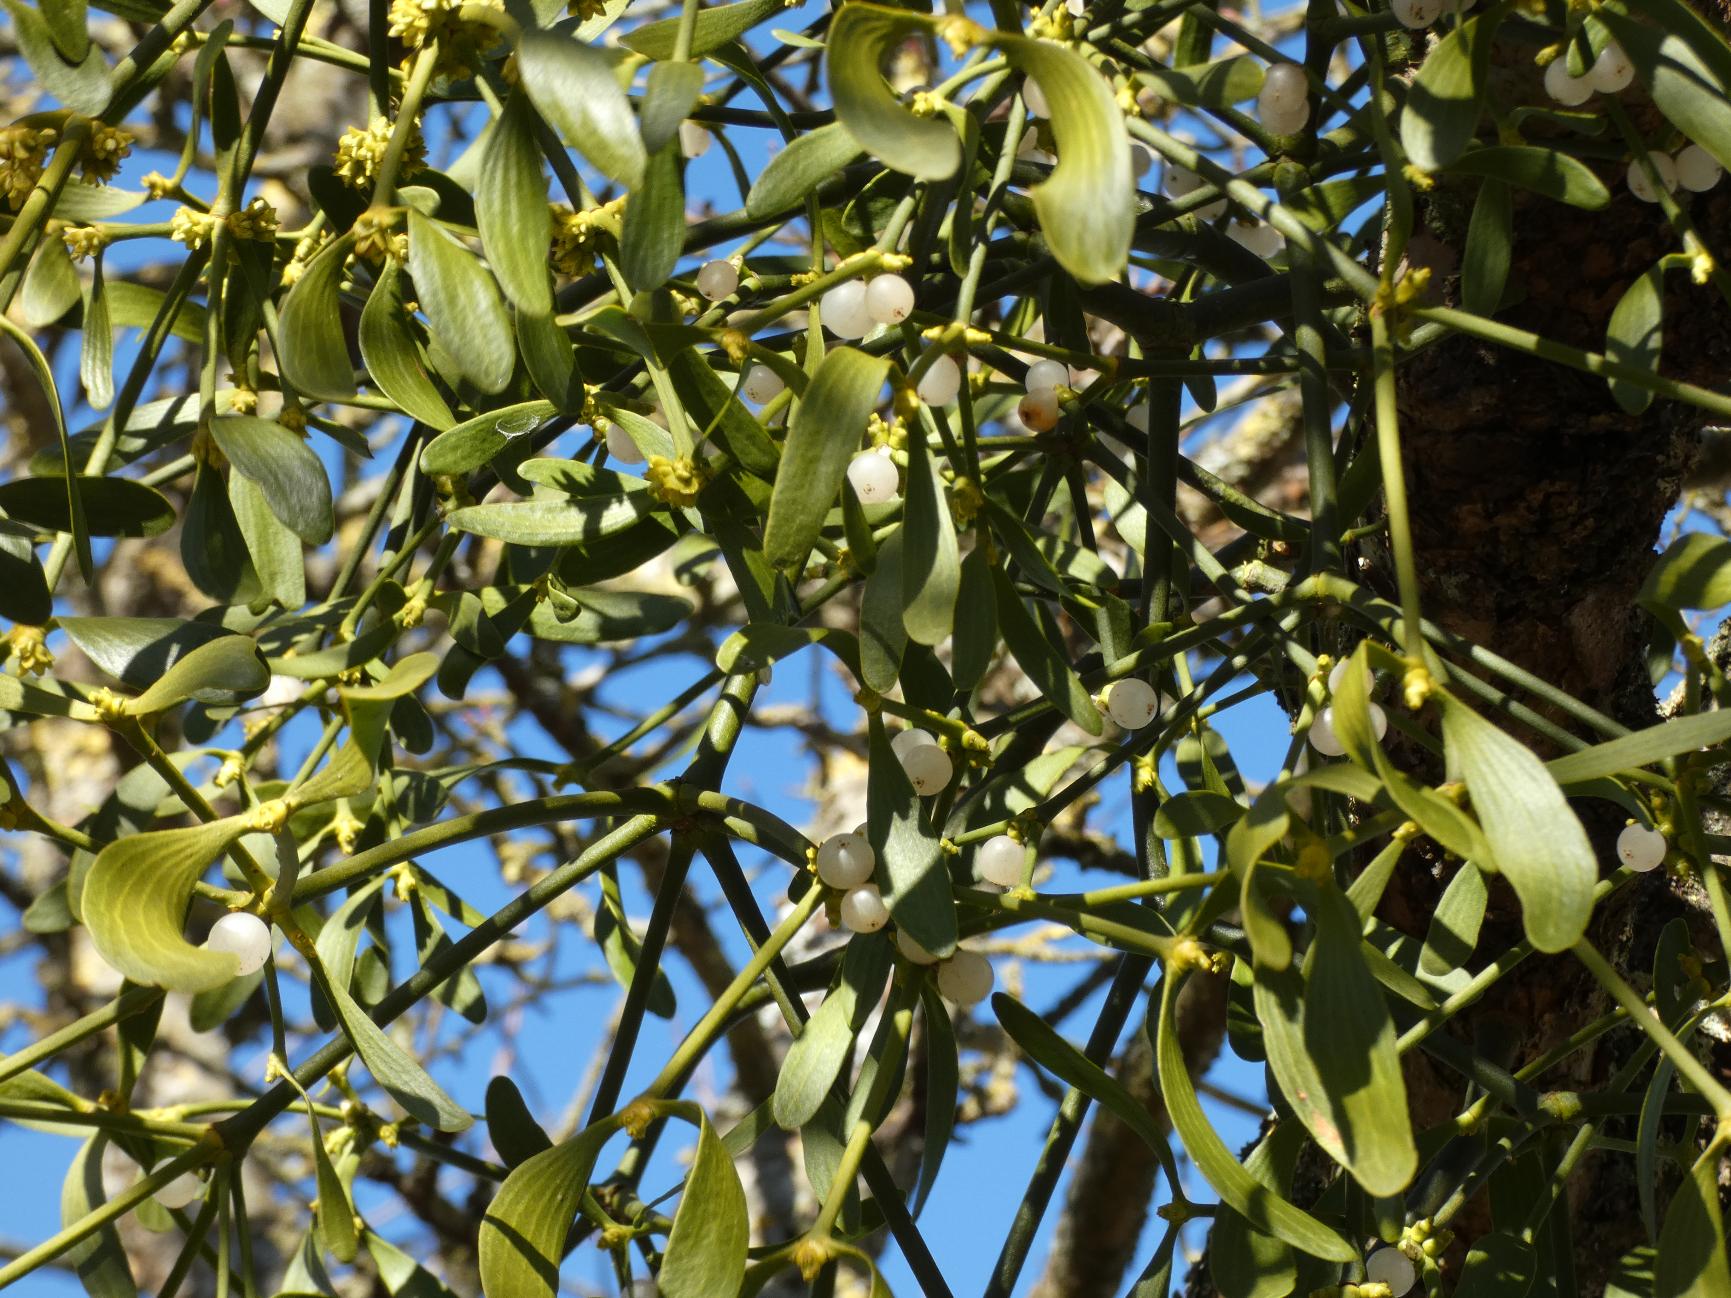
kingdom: Plantae
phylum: Tracheophyta
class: Magnoliopsida
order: Santalales
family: Viscaceae
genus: Viscum
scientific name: Viscum album
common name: Mistelten
